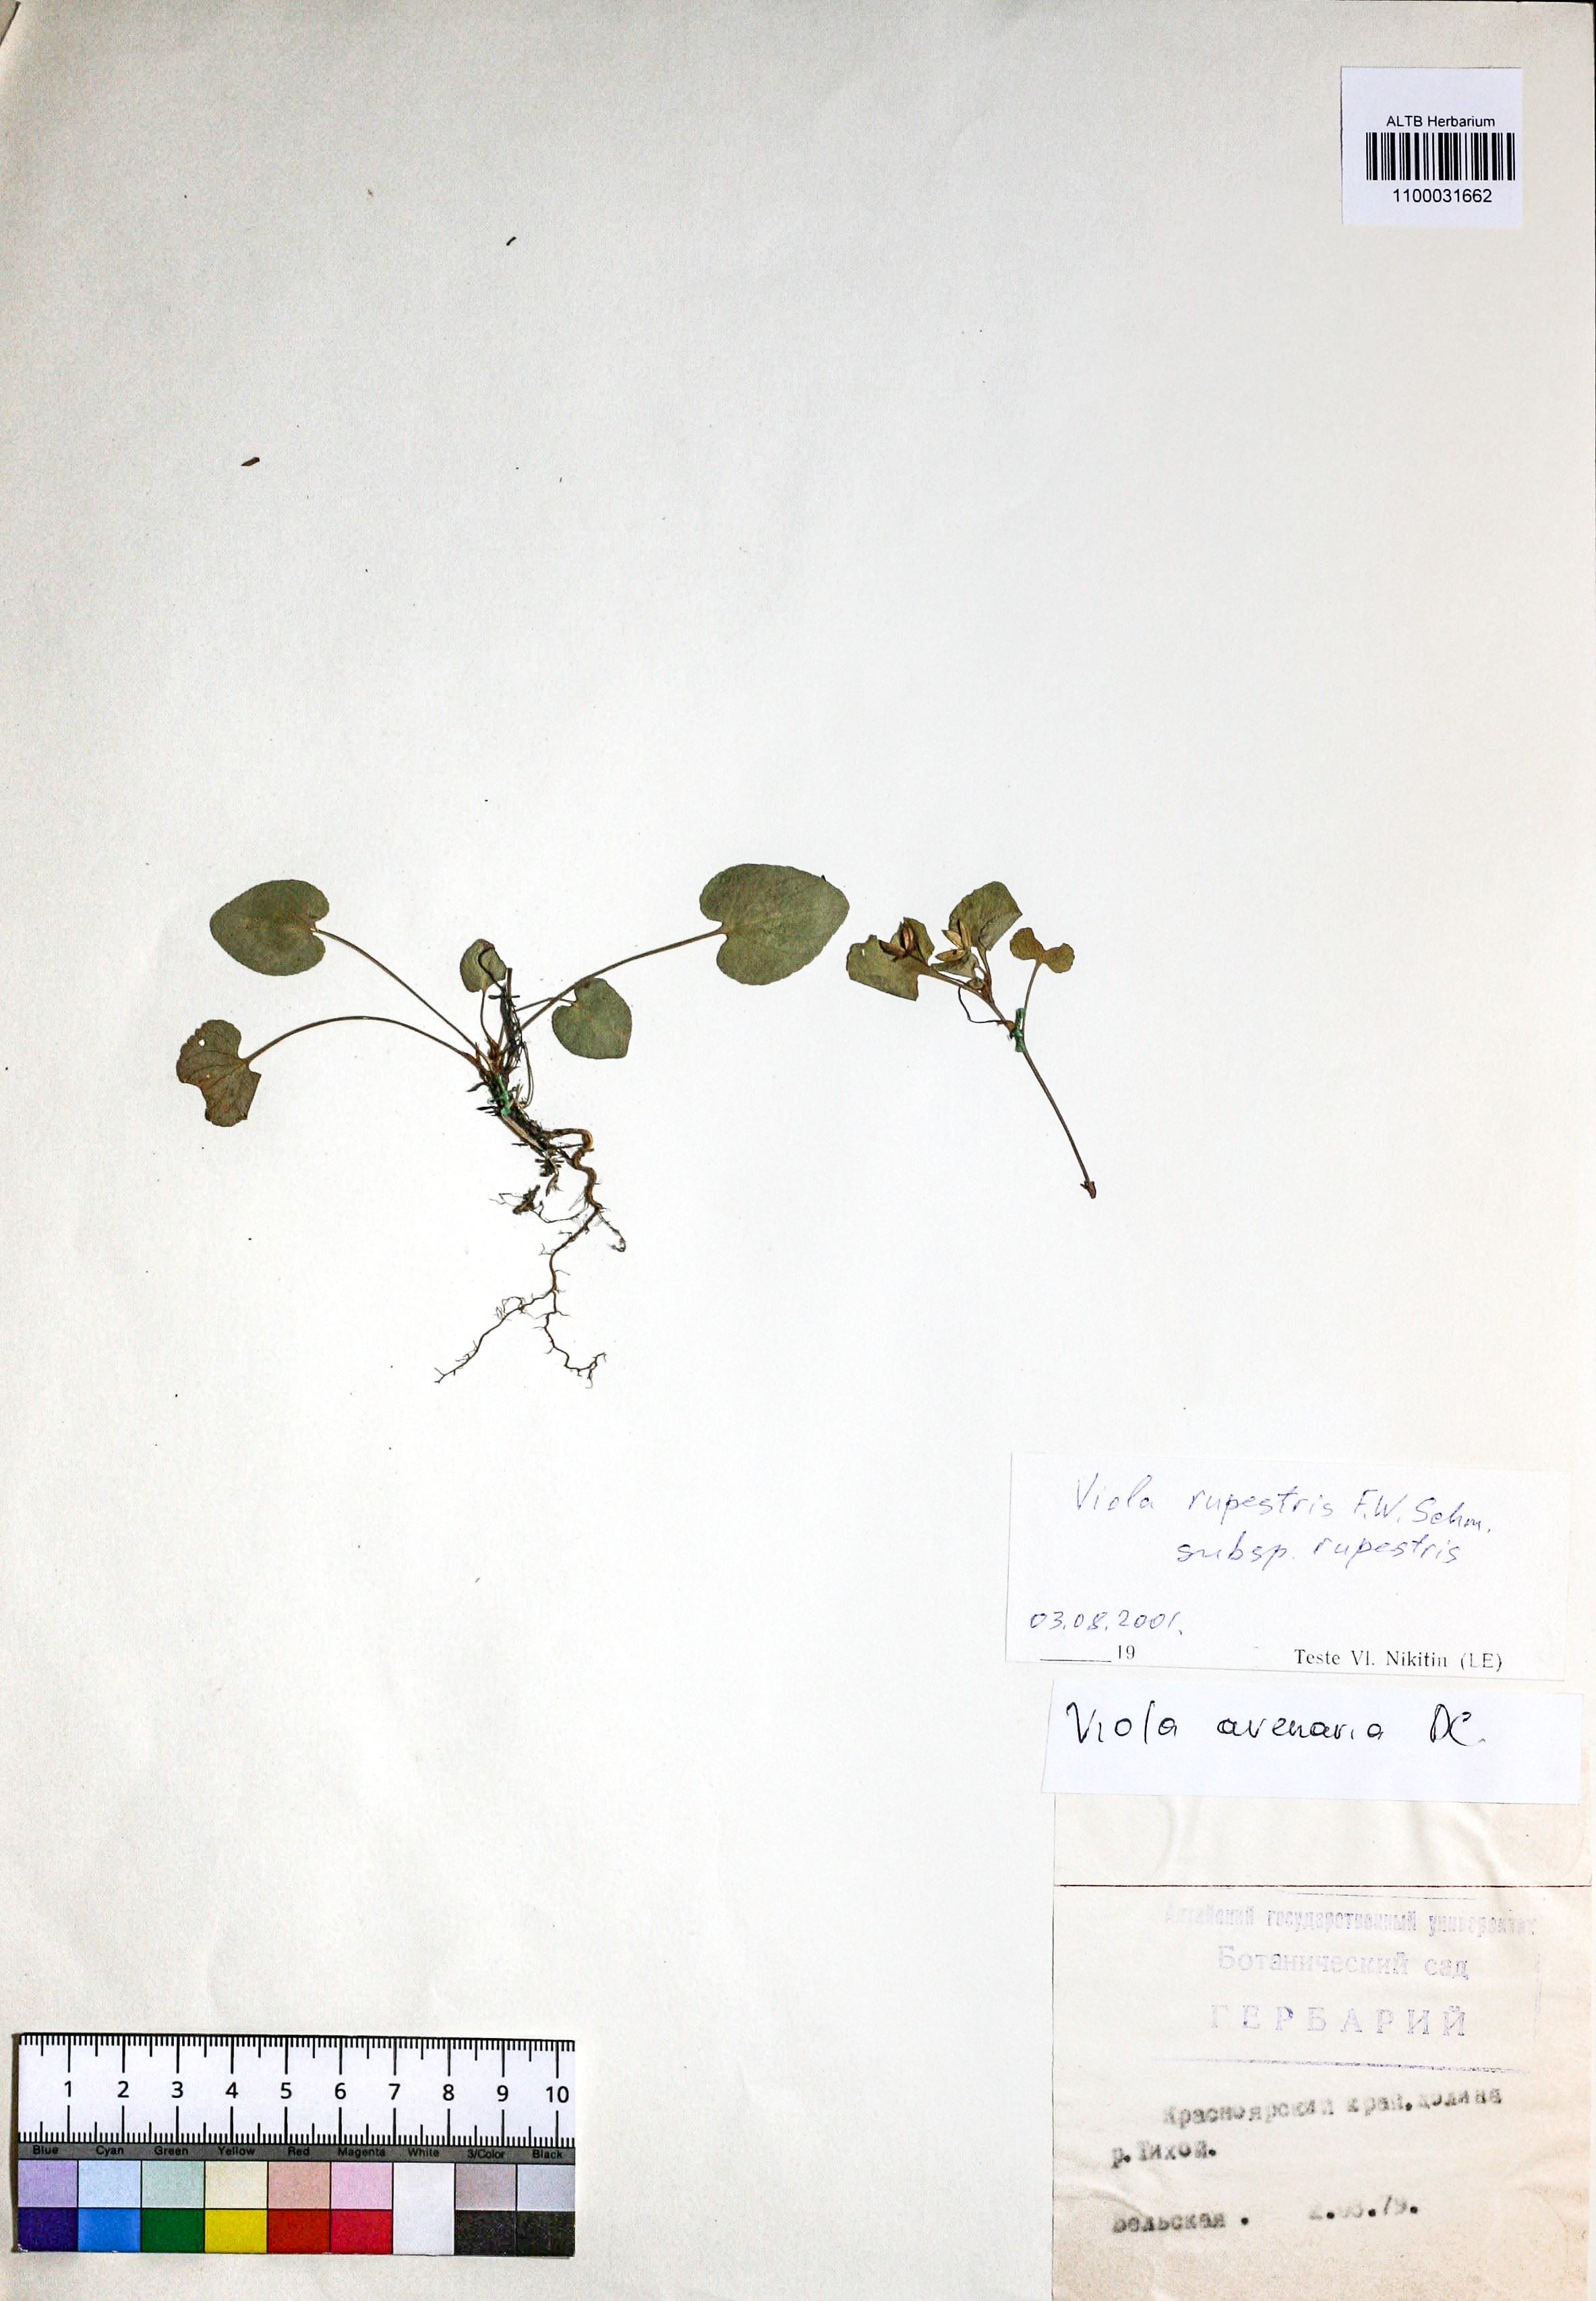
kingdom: Plantae
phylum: Tracheophyta
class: Magnoliopsida
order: Malpighiales
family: Violaceae
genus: Viola
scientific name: Viola rupestris
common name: Teesdale violet
